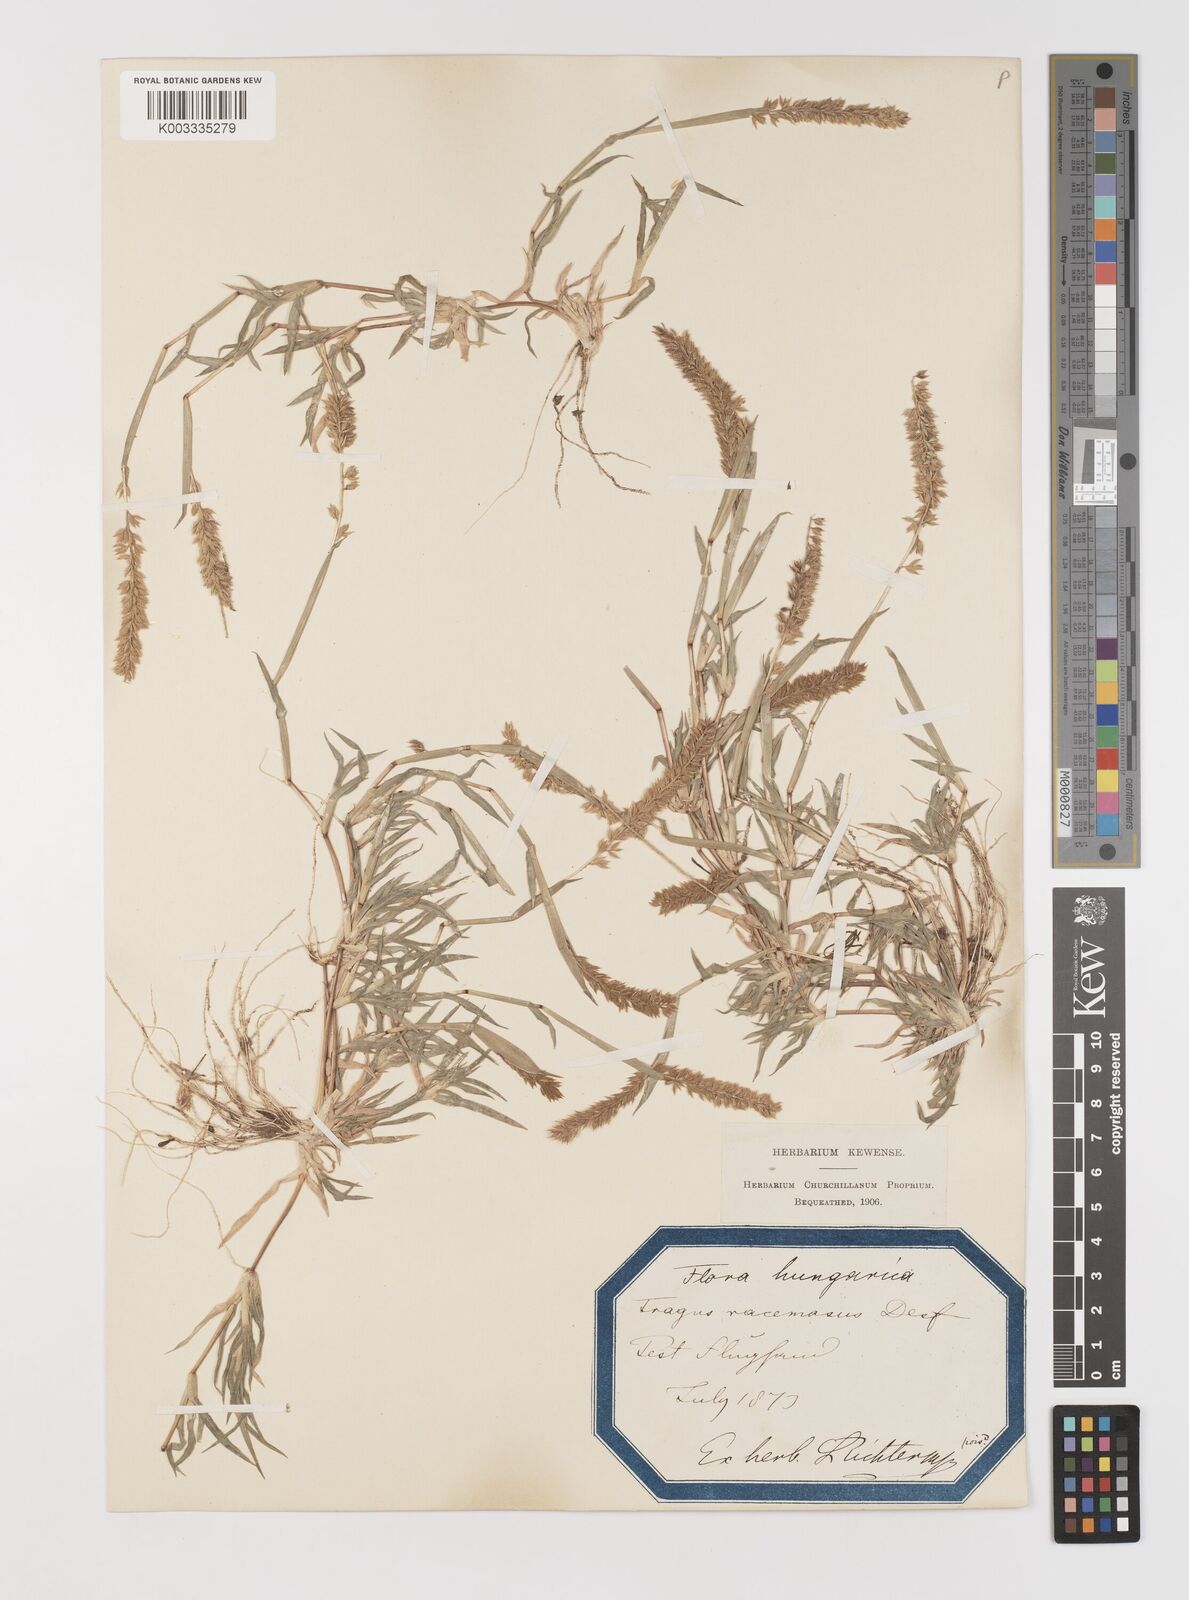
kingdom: Plantae
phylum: Tracheophyta
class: Liliopsida
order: Poales
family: Poaceae
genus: Tragus
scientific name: Tragus racemosus
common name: European bur-grass
